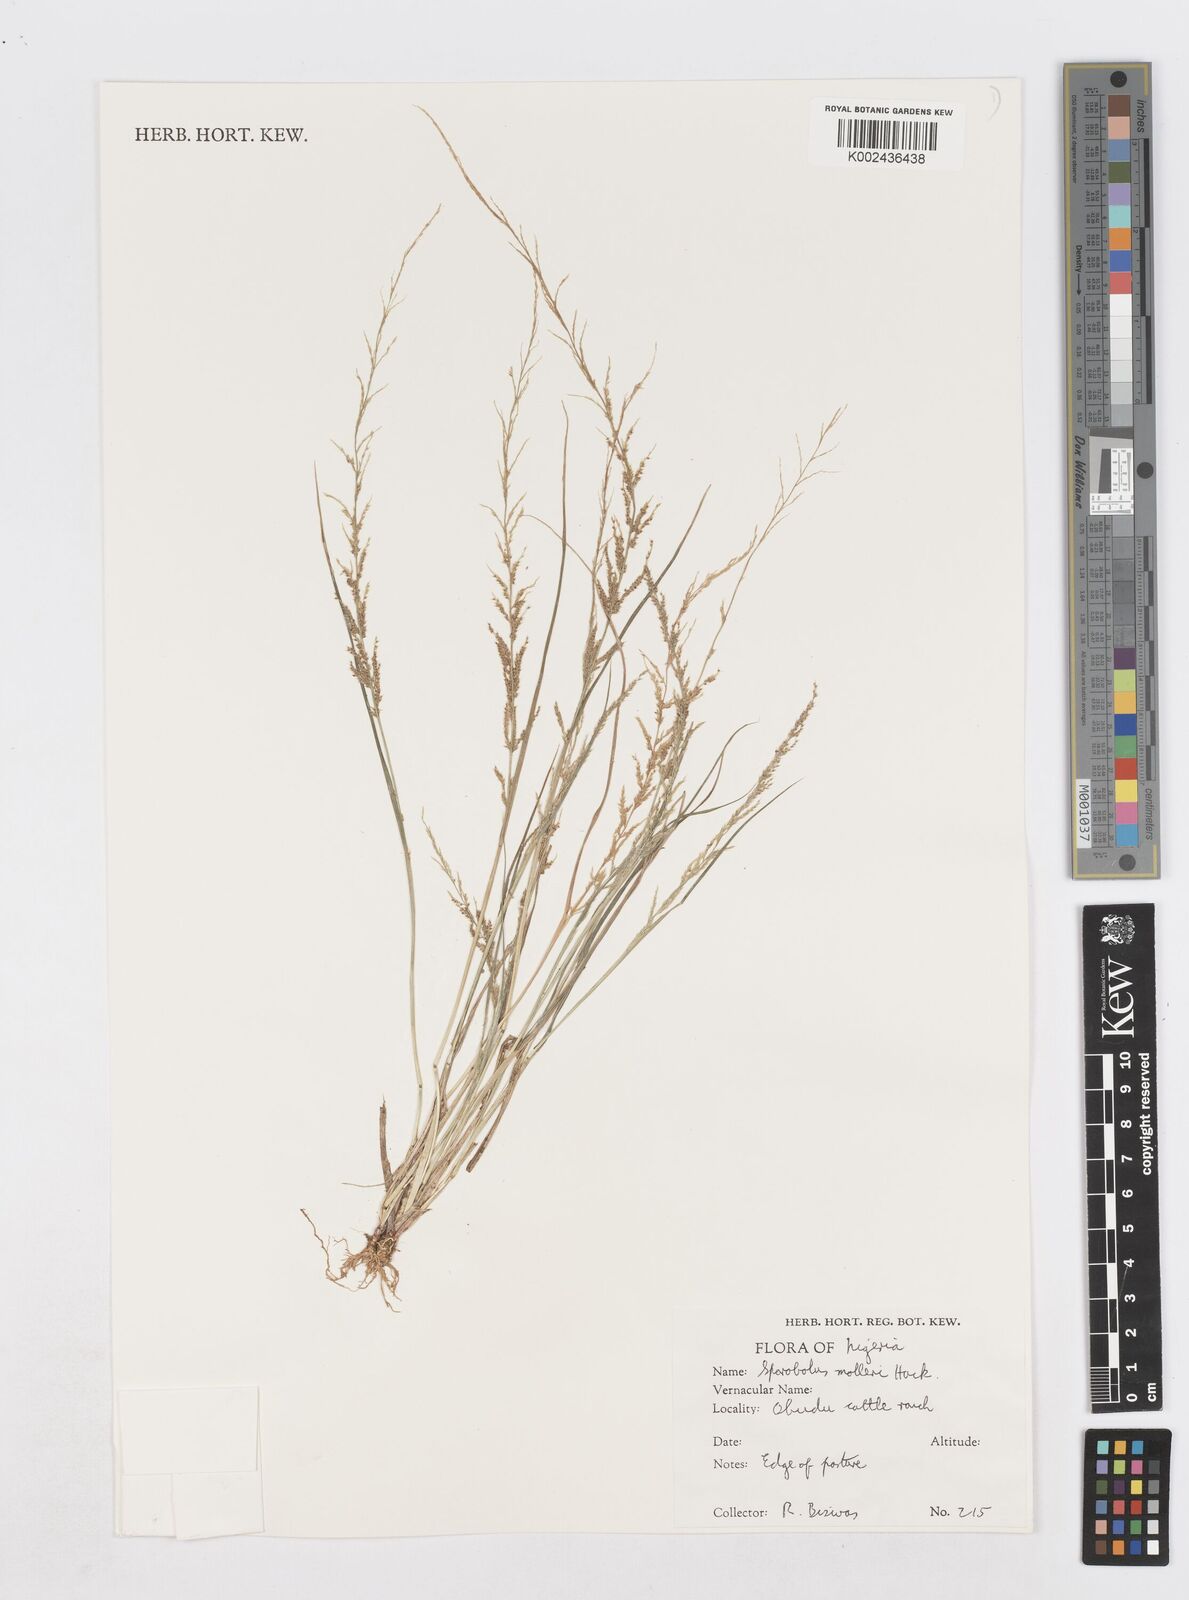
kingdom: Plantae
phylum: Tracheophyta
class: Liliopsida
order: Poales
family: Poaceae
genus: Sporobolus
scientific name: Sporobolus molleri
